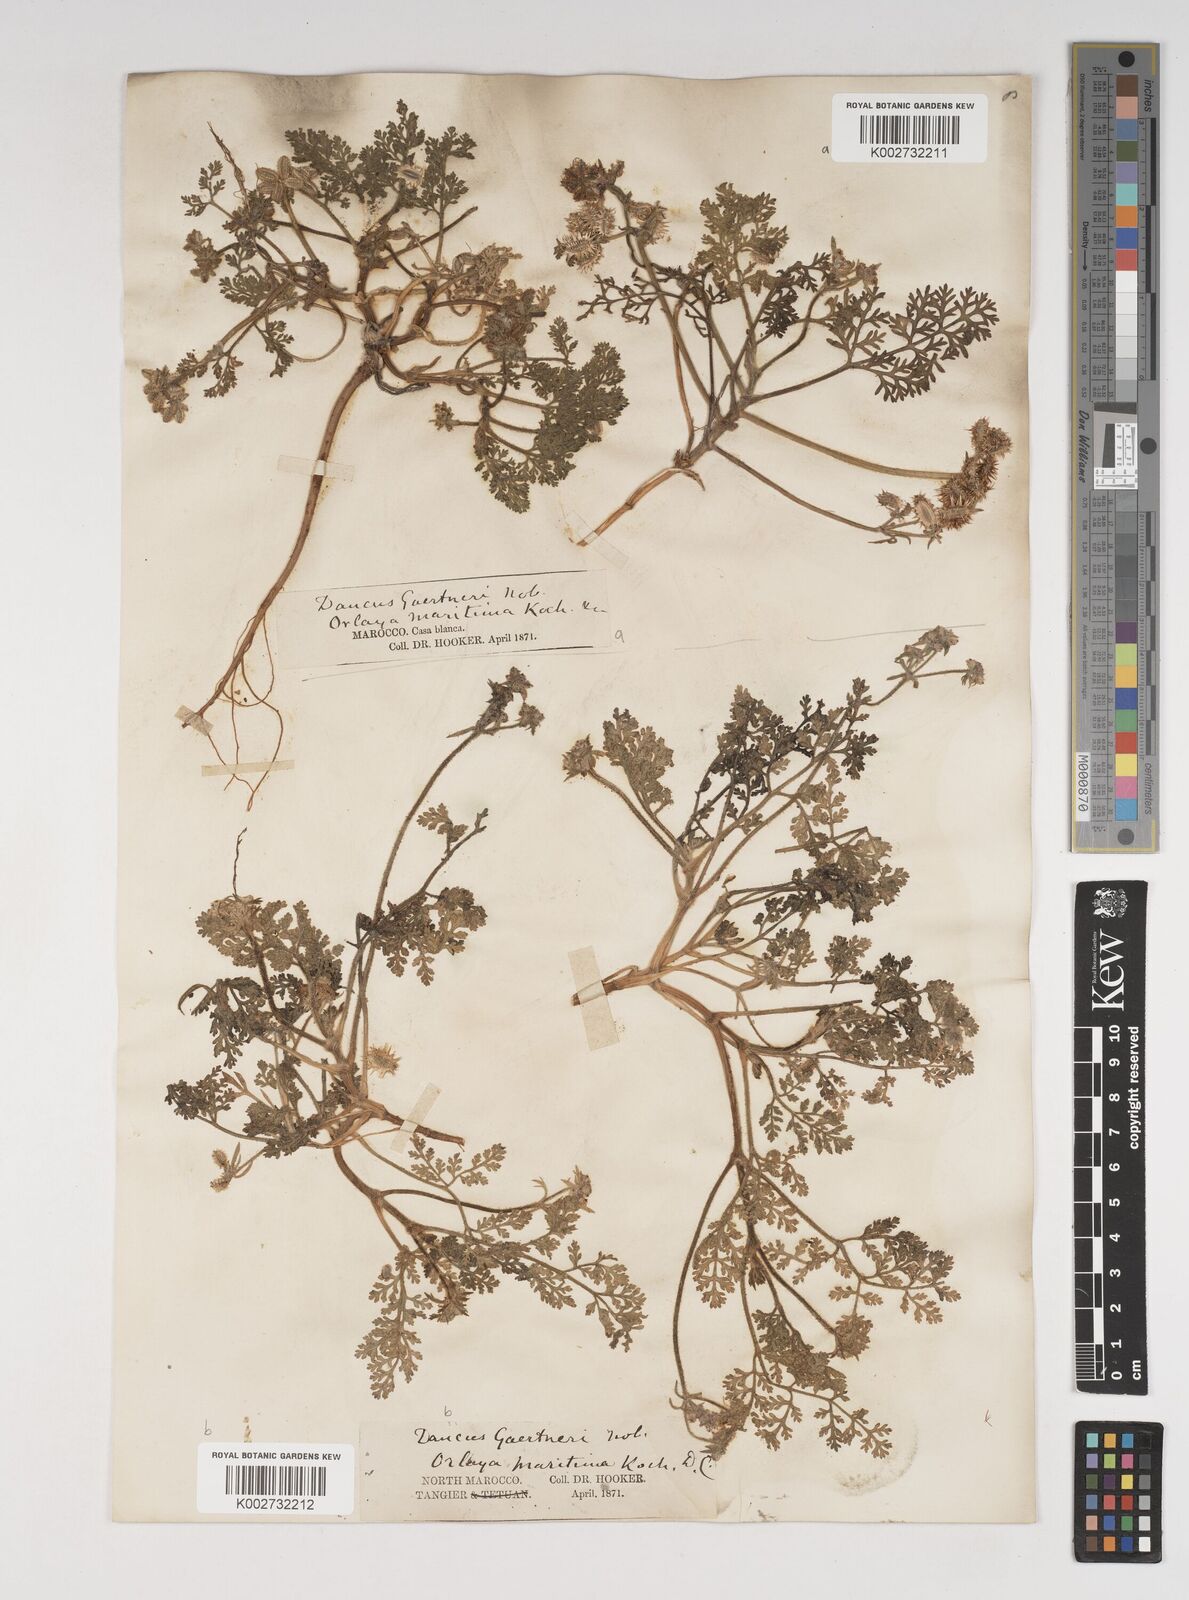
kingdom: Plantae
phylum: Tracheophyta
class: Magnoliopsida
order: Apiales
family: Apiaceae
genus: Daucus
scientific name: Daucus pumilus
